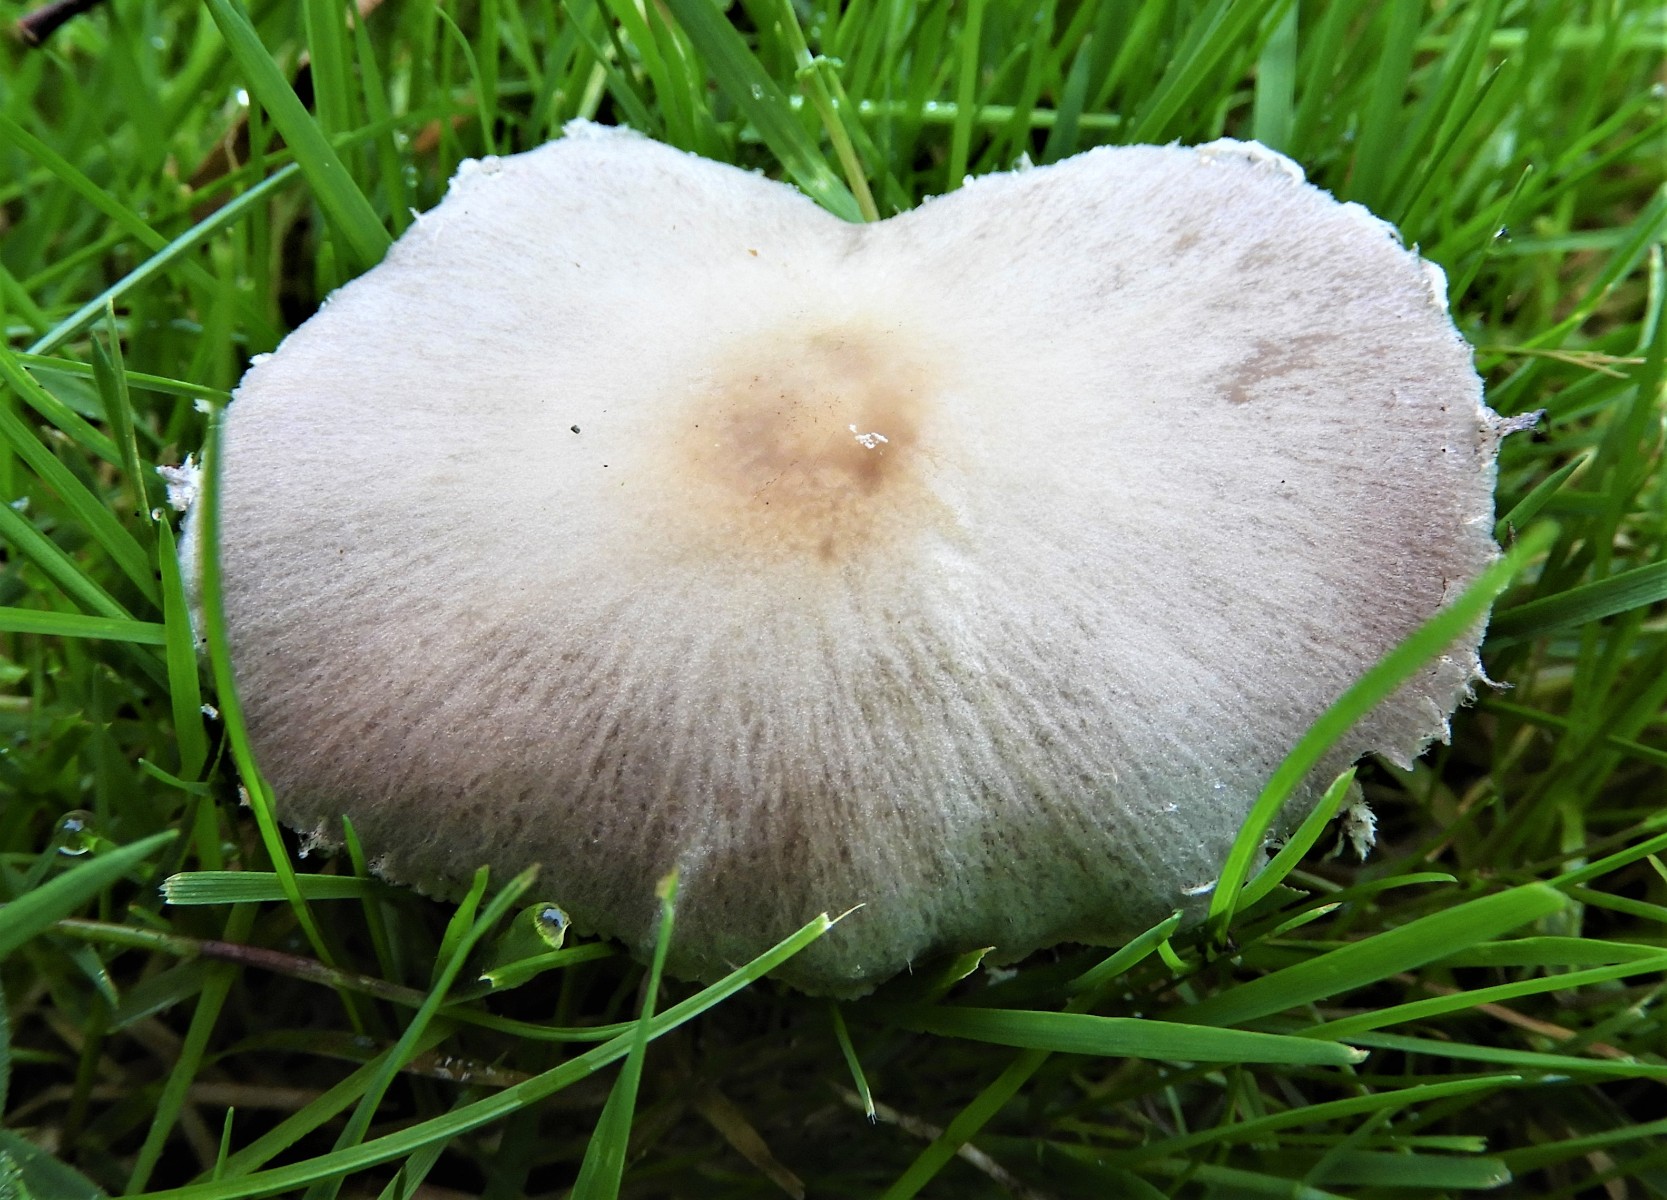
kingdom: Fungi
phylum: Basidiomycota
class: Agaricomycetes
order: Agaricales
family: Psathyrellaceae
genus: Candolleomyces
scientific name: Candolleomyces candolleanus
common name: Candolles mørkhat
